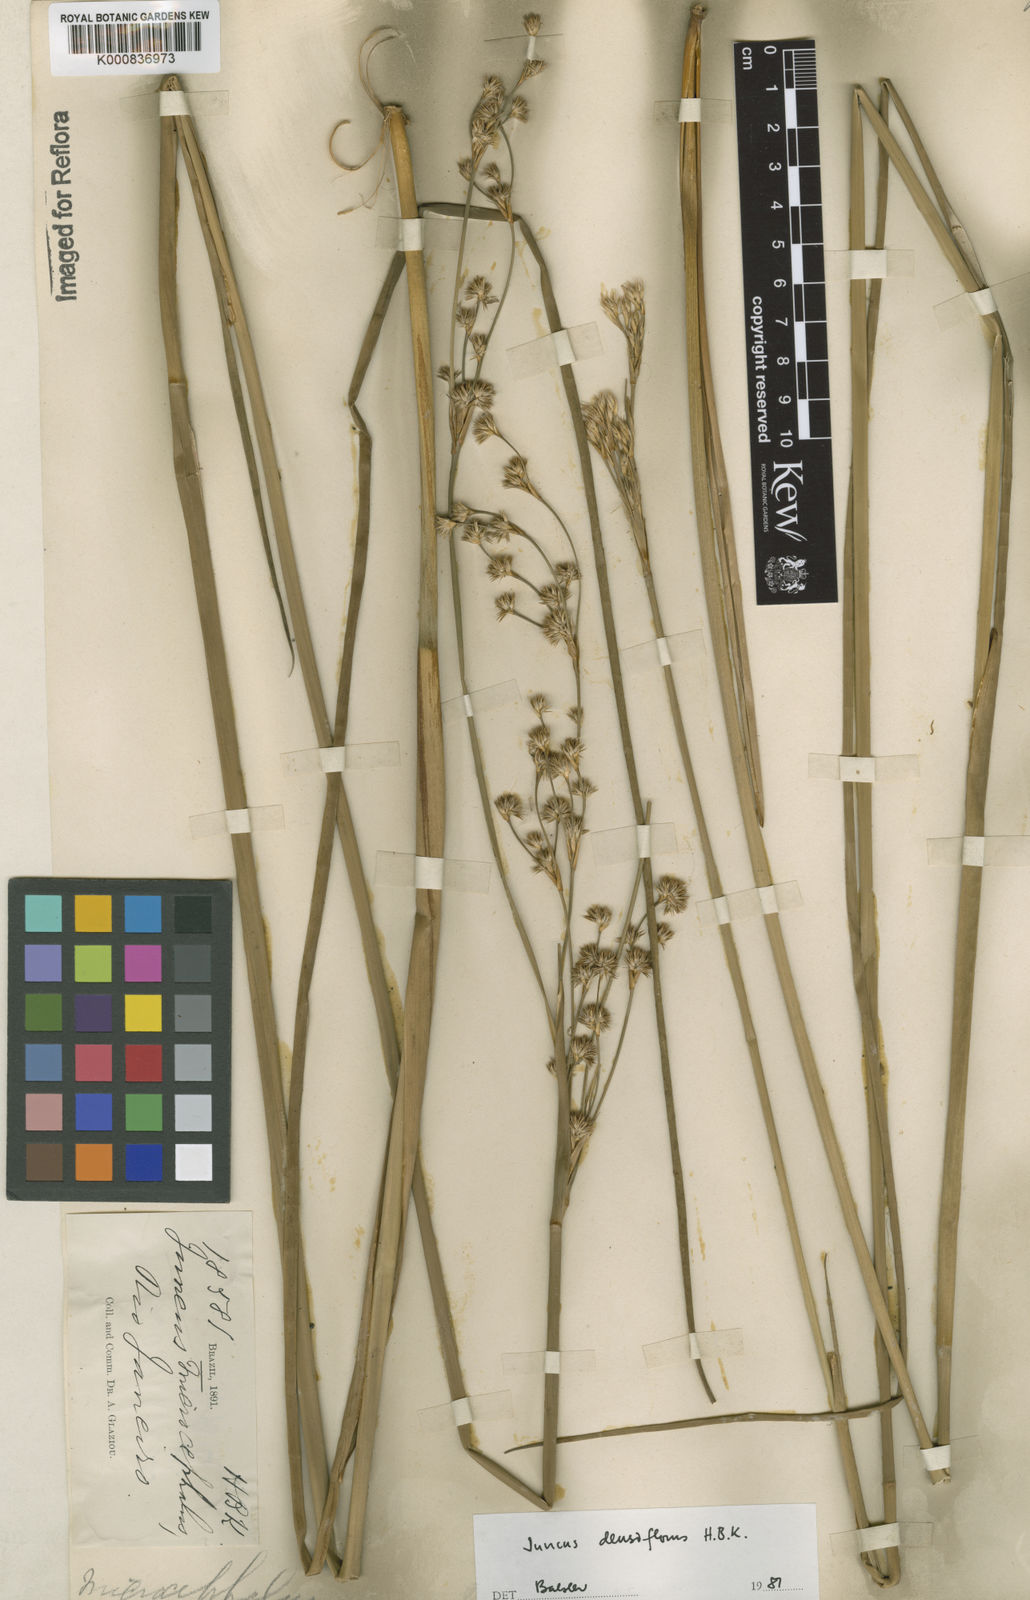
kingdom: Plantae
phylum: Tracheophyta
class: Liliopsida
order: Poales
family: Juncaceae
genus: Juncus
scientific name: Juncus densiflorus
